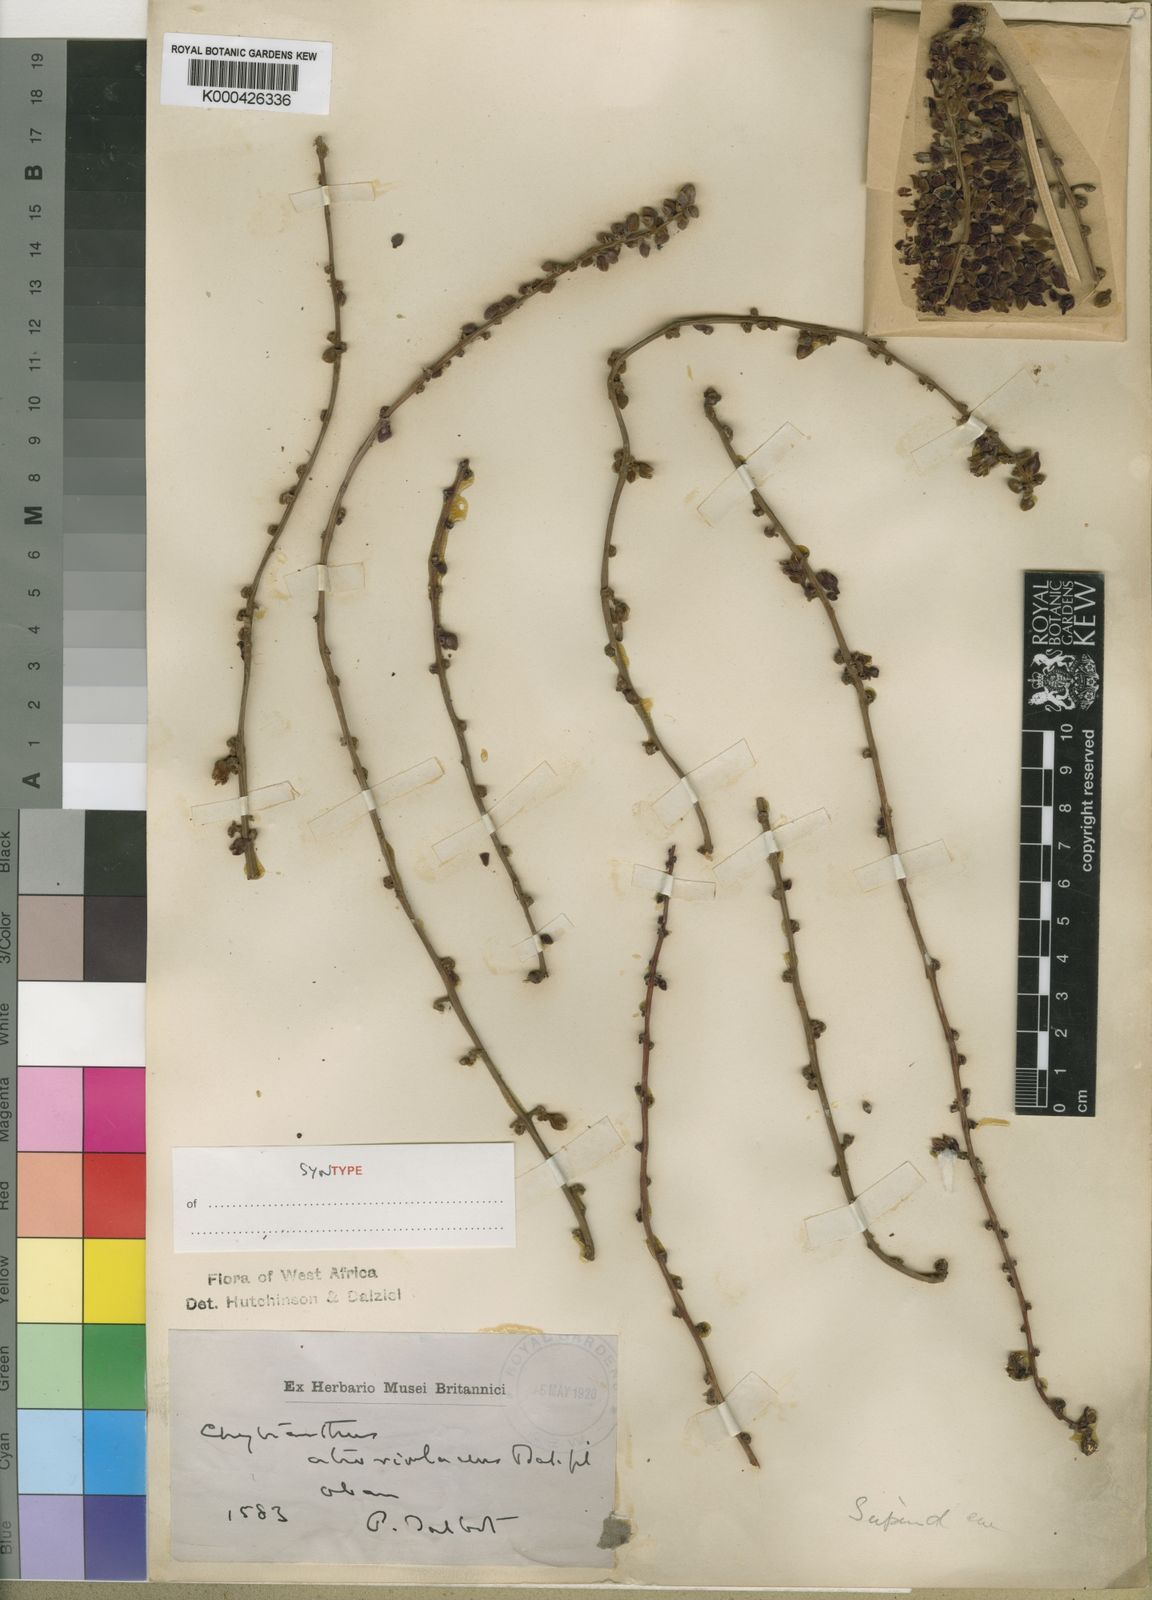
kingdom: Plantae
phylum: Tracheophyta
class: Magnoliopsida
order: Sapindales
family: Sapindaceae
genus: Chytranthus
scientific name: Chytranthus atroviolaceus
